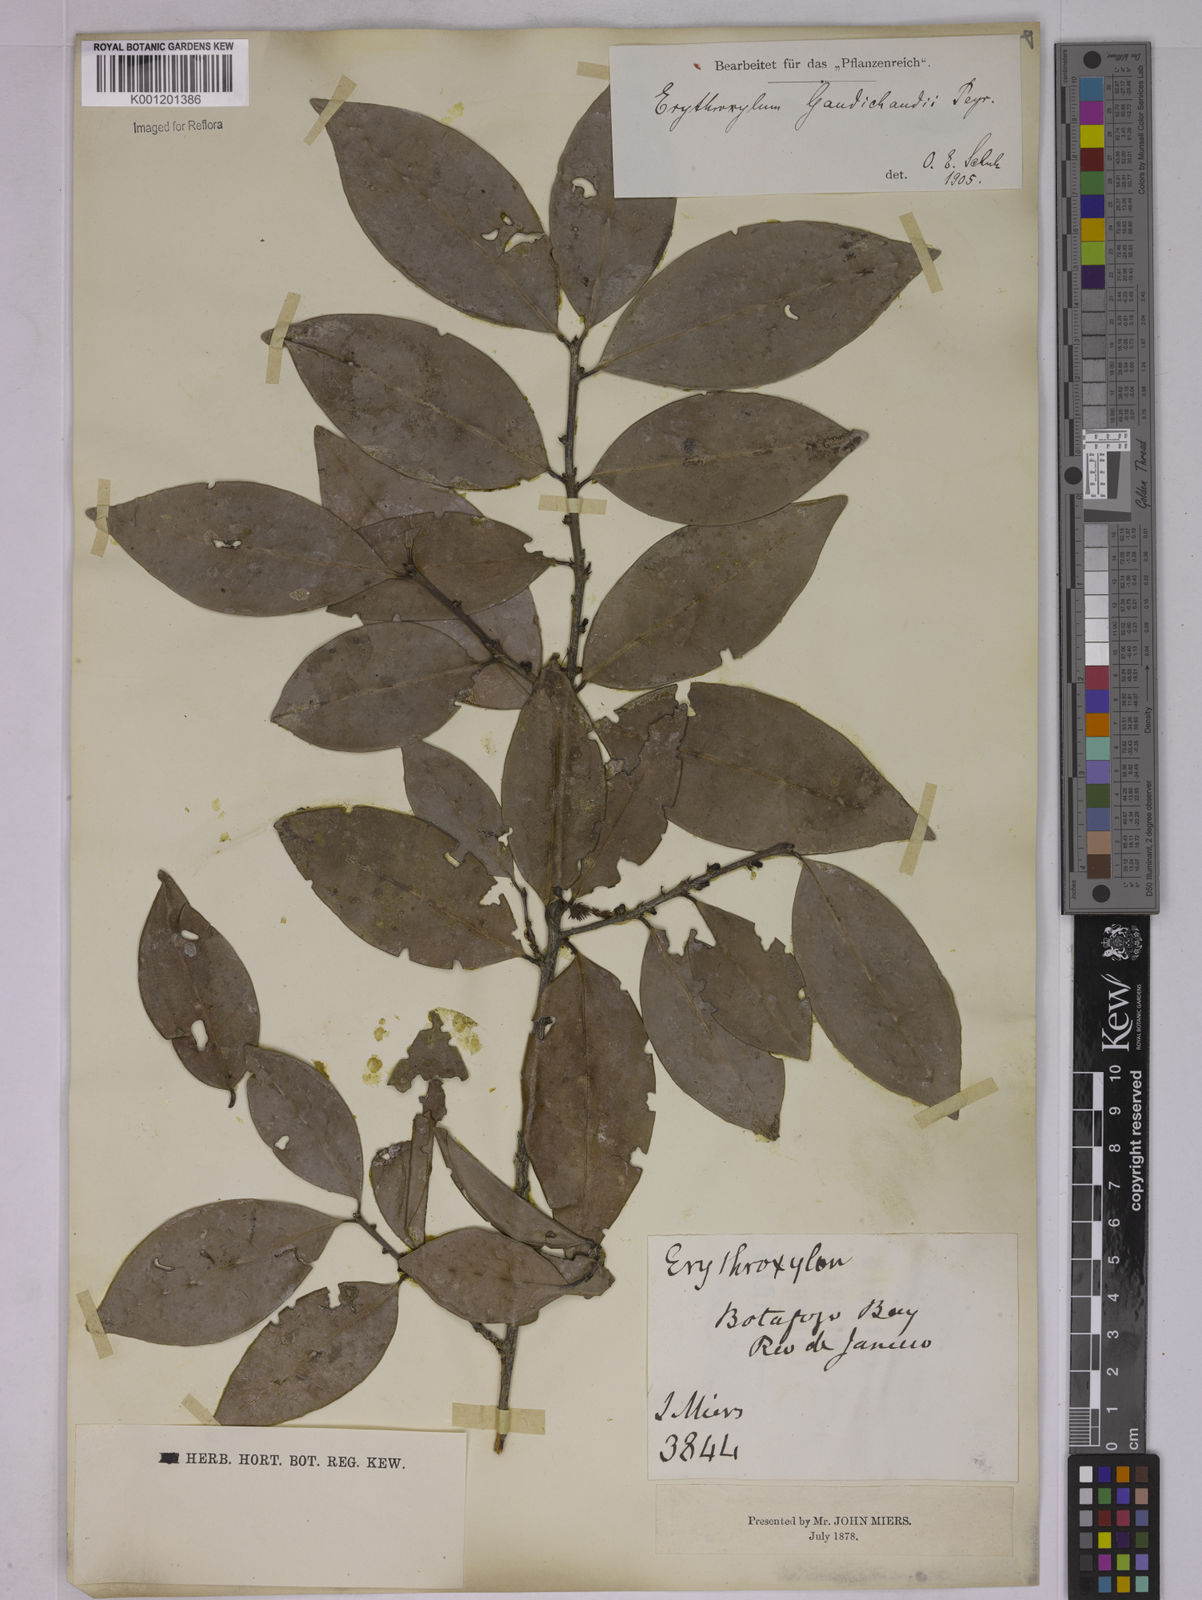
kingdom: Plantae
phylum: Tracheophyta
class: Magnoliopsida
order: Malpighiales
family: Erythroxylaceae
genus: Erythroxylum
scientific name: Erythroxylum gaudichaudii
